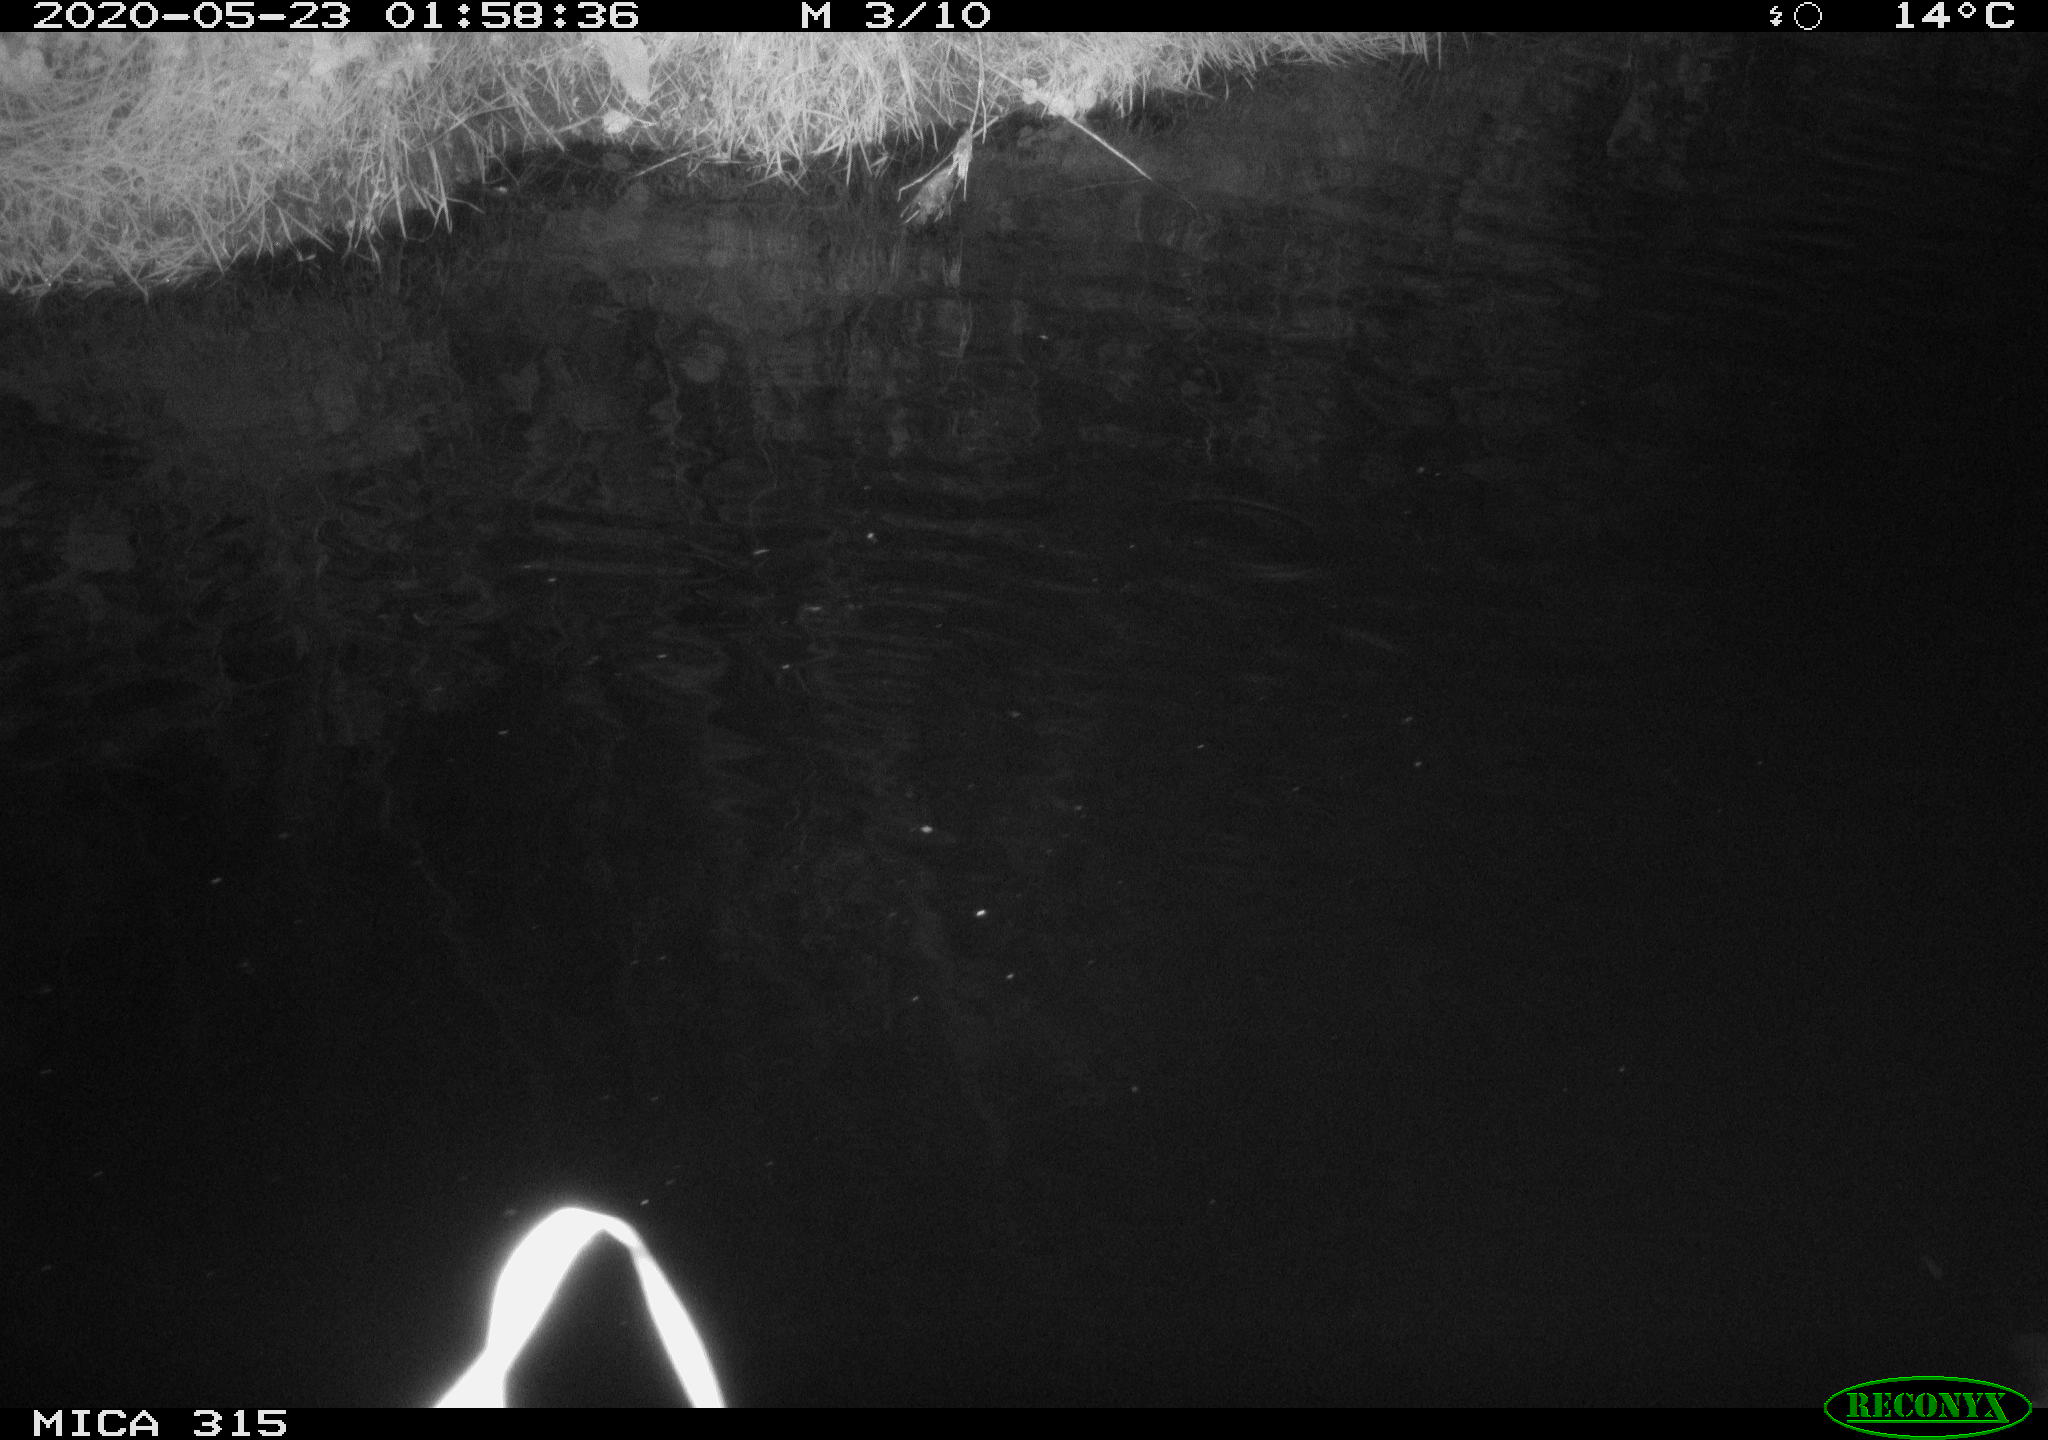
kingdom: Animalia
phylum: Chordata
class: Aves
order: Anseriformes
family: Anatidae
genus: Anas
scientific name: Anas platyrhynchos
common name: Mallard
